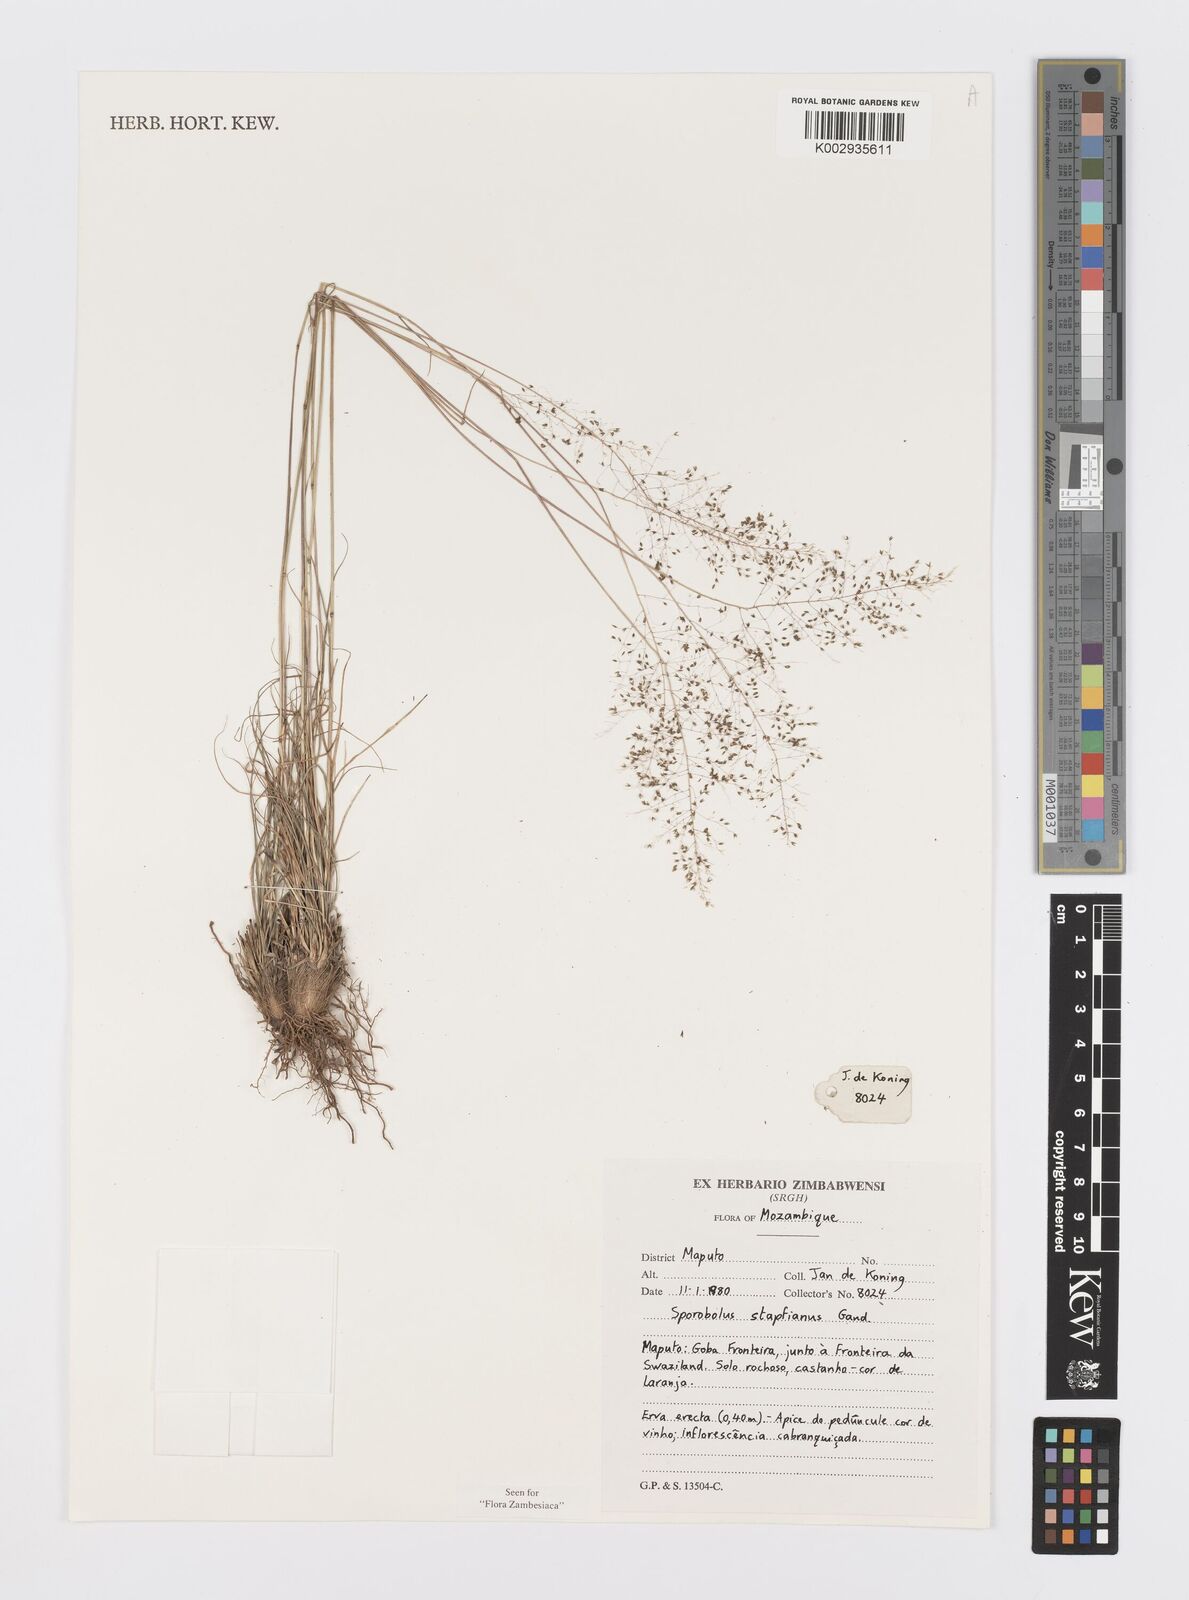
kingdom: Plantae
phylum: Tracheophyta
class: Liliopsida
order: Poales
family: Poaceae
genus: Sporobolus
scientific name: Sporobolus stapfianus
